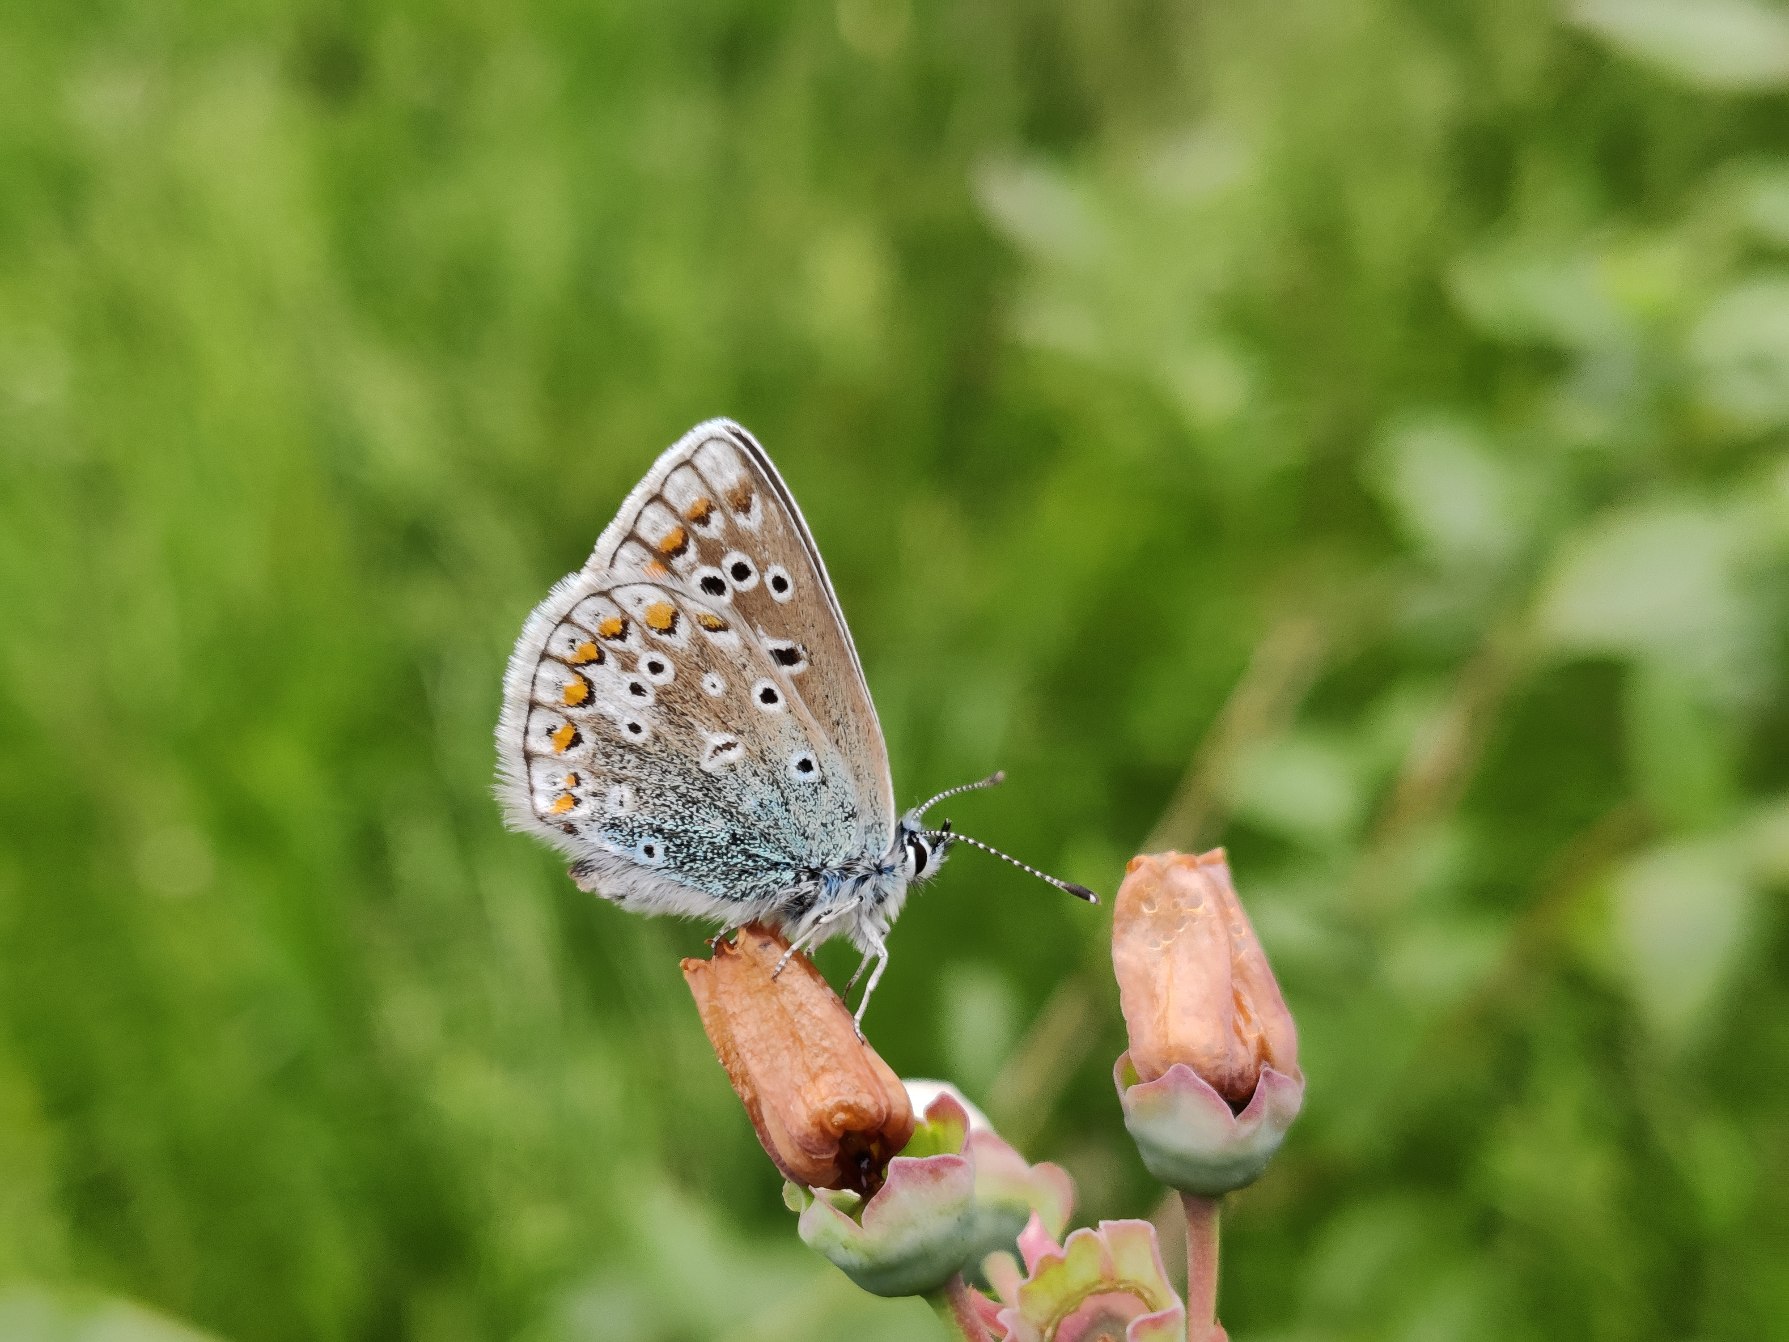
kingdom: Animalia
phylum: Arthropoda
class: Insecta
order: Lepidoptera
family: Lycaenidae
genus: Polyommatus
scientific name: Polyommatus icarus
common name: Almindelig blåfugl
